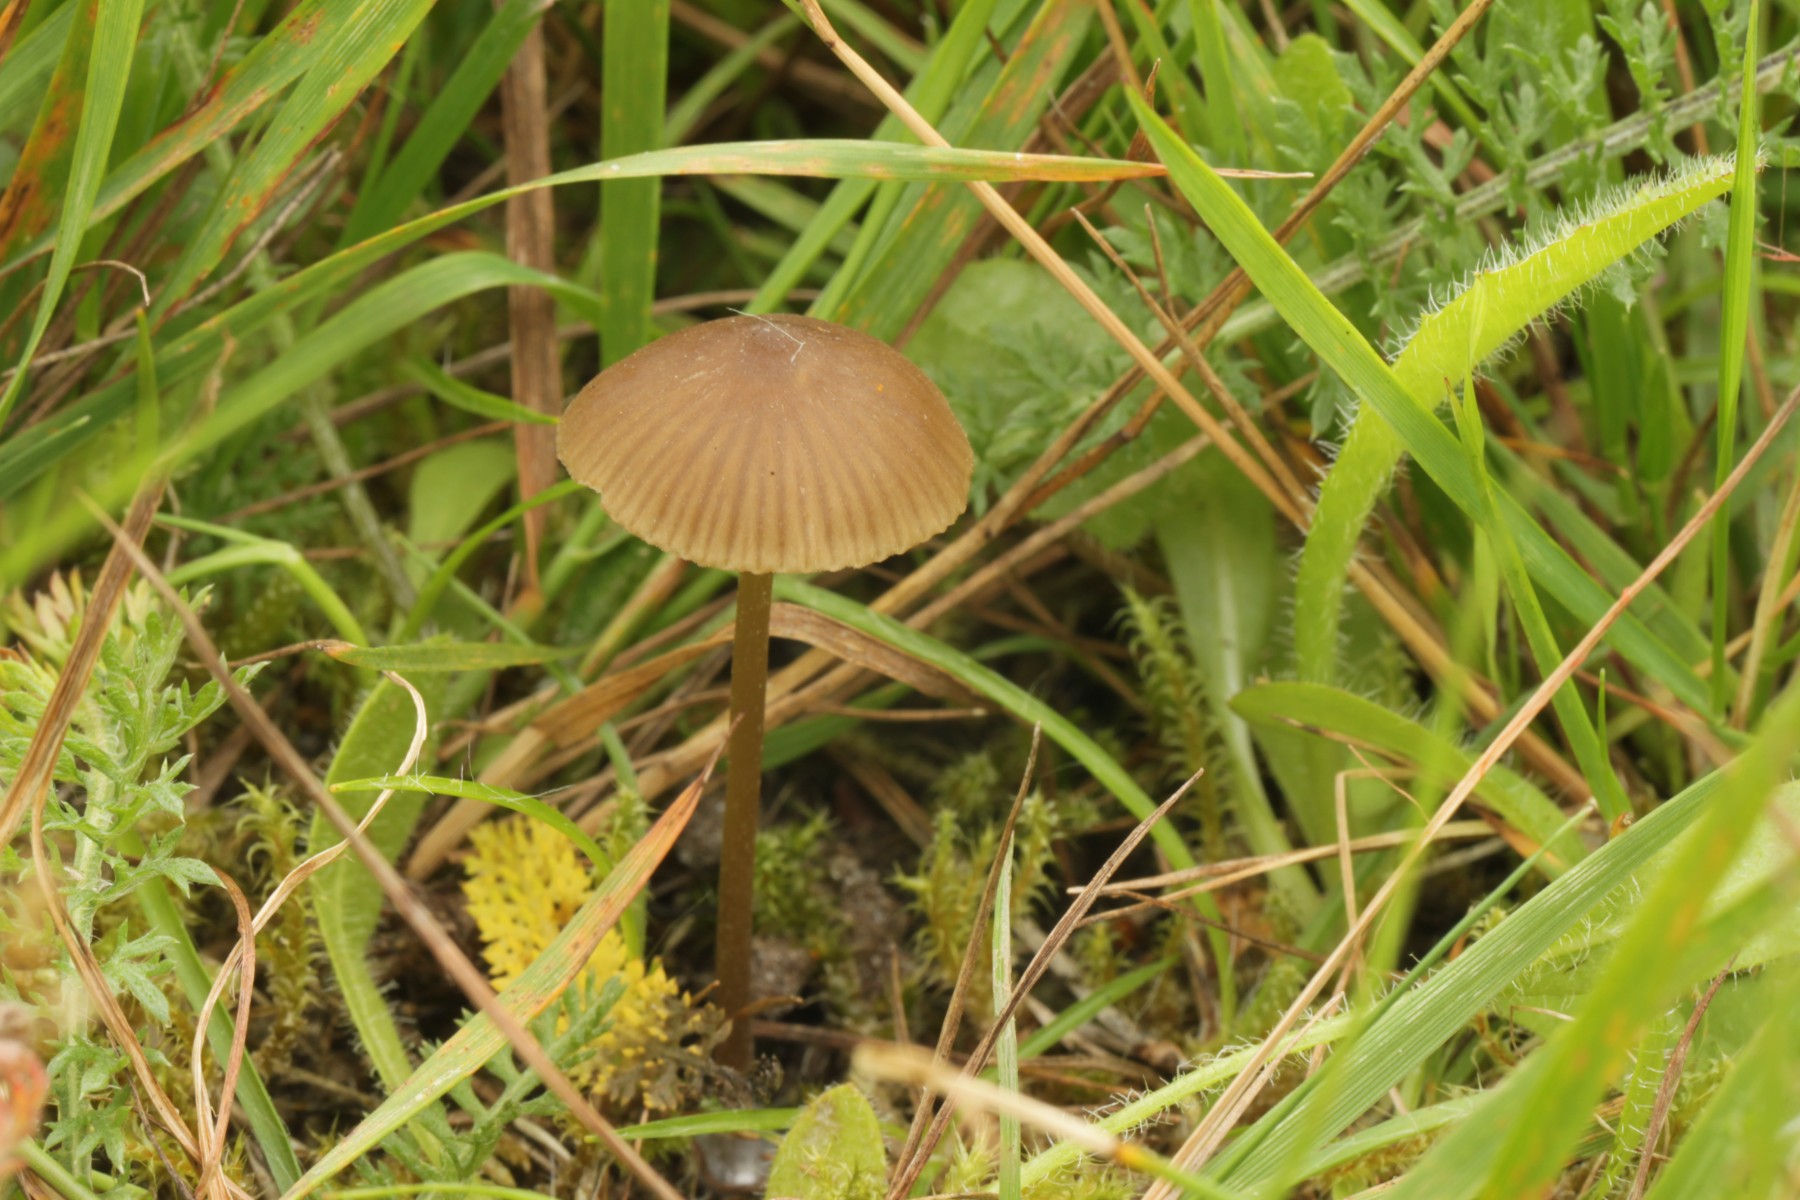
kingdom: Fungi
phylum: Basidiomycota
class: Agaricomycetes
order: Agaricales
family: Entolomataceae
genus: Entoloma
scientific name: Entoloma
